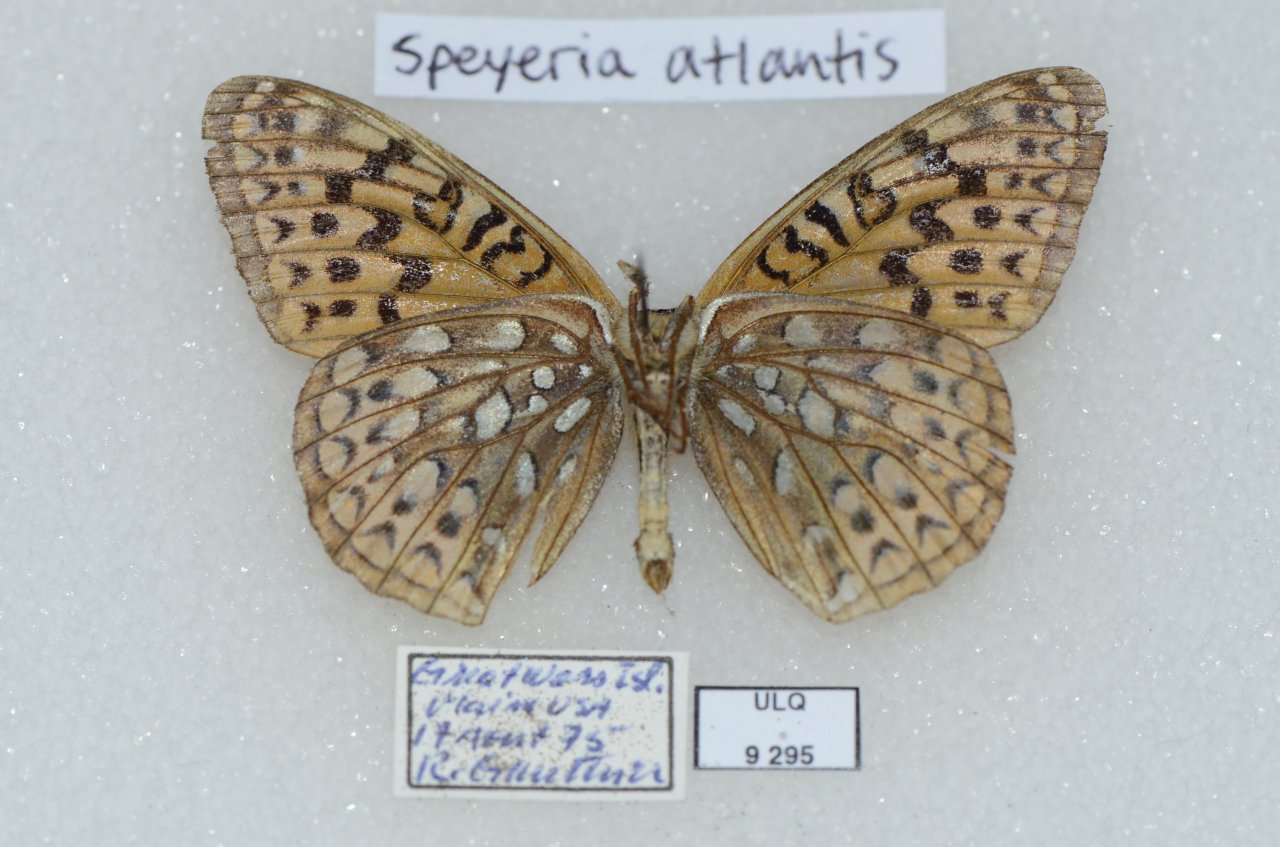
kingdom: Animalia
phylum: Arthropoda
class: Insecta
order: Lepidoptera
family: Nymphalidae
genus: Speyeria
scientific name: Speyeria atlantis
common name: Atlantis Fritillary
